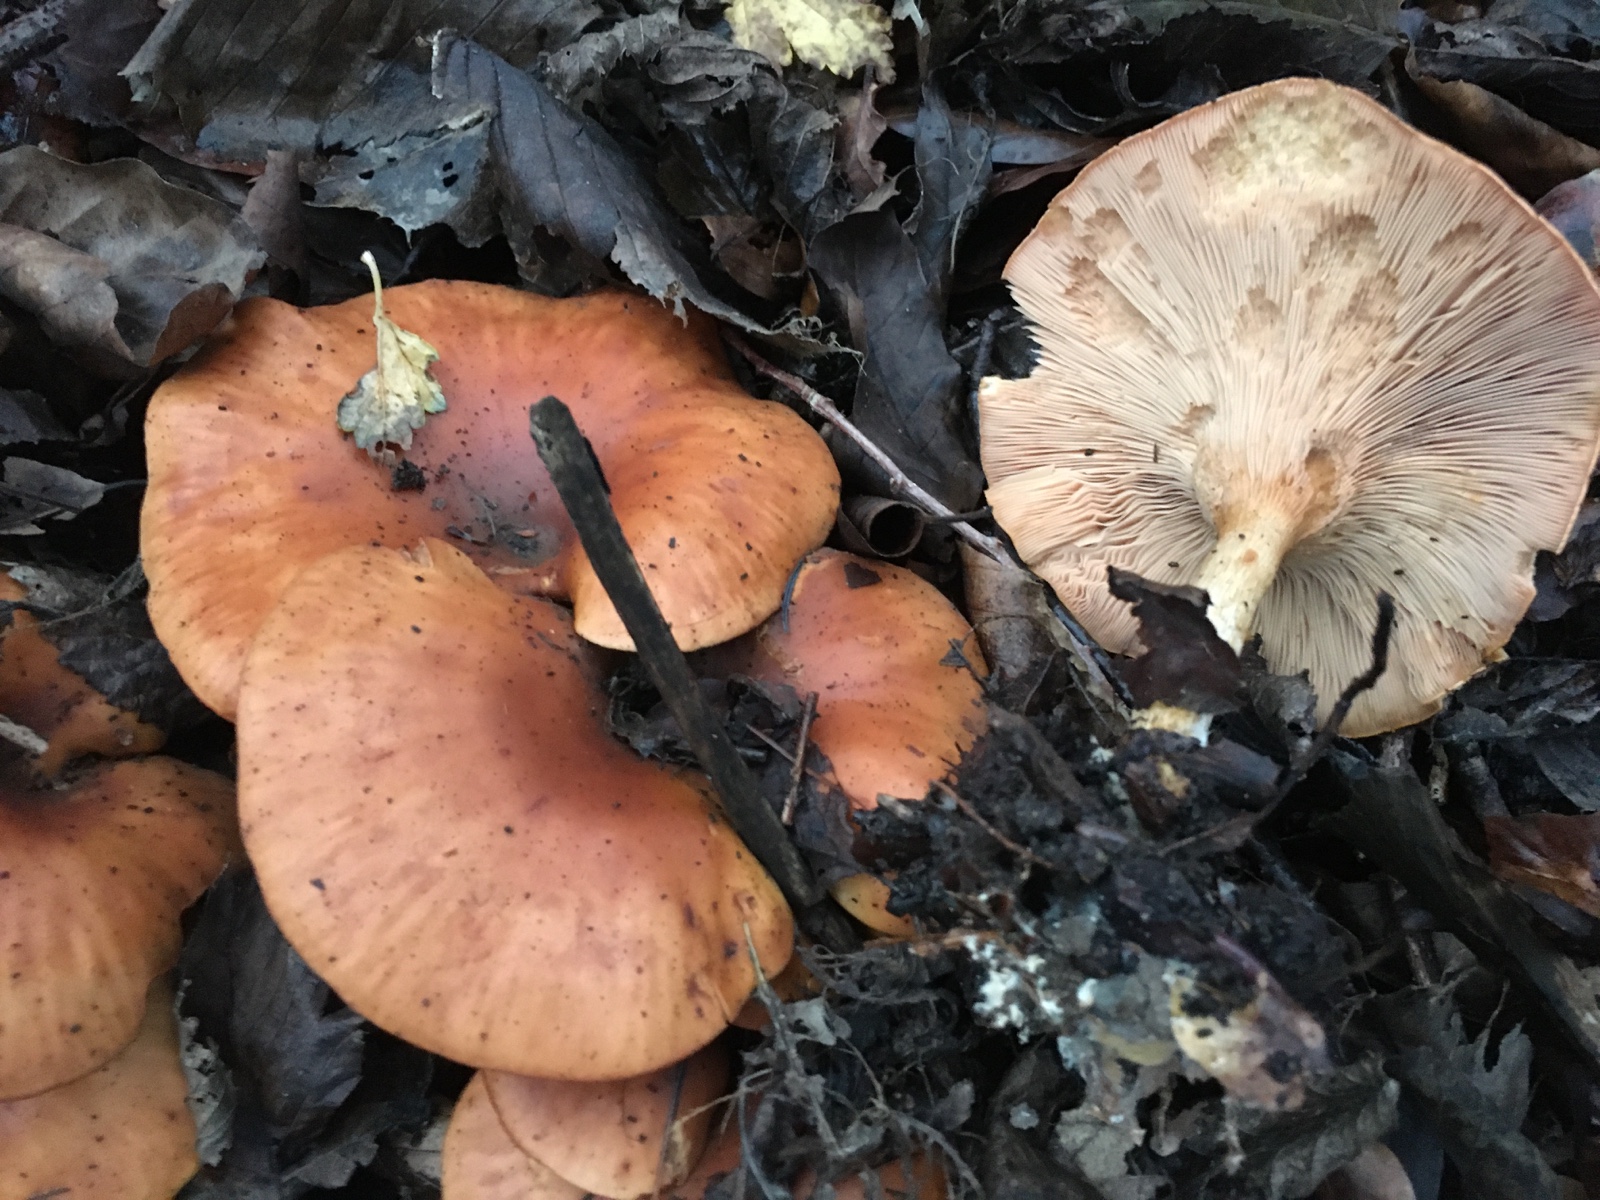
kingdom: Fungi
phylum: Basidiomycota
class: Agaricomycetes
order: Agaricales
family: Tricholomataceae
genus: Paralepista
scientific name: Paralepista flaccida
